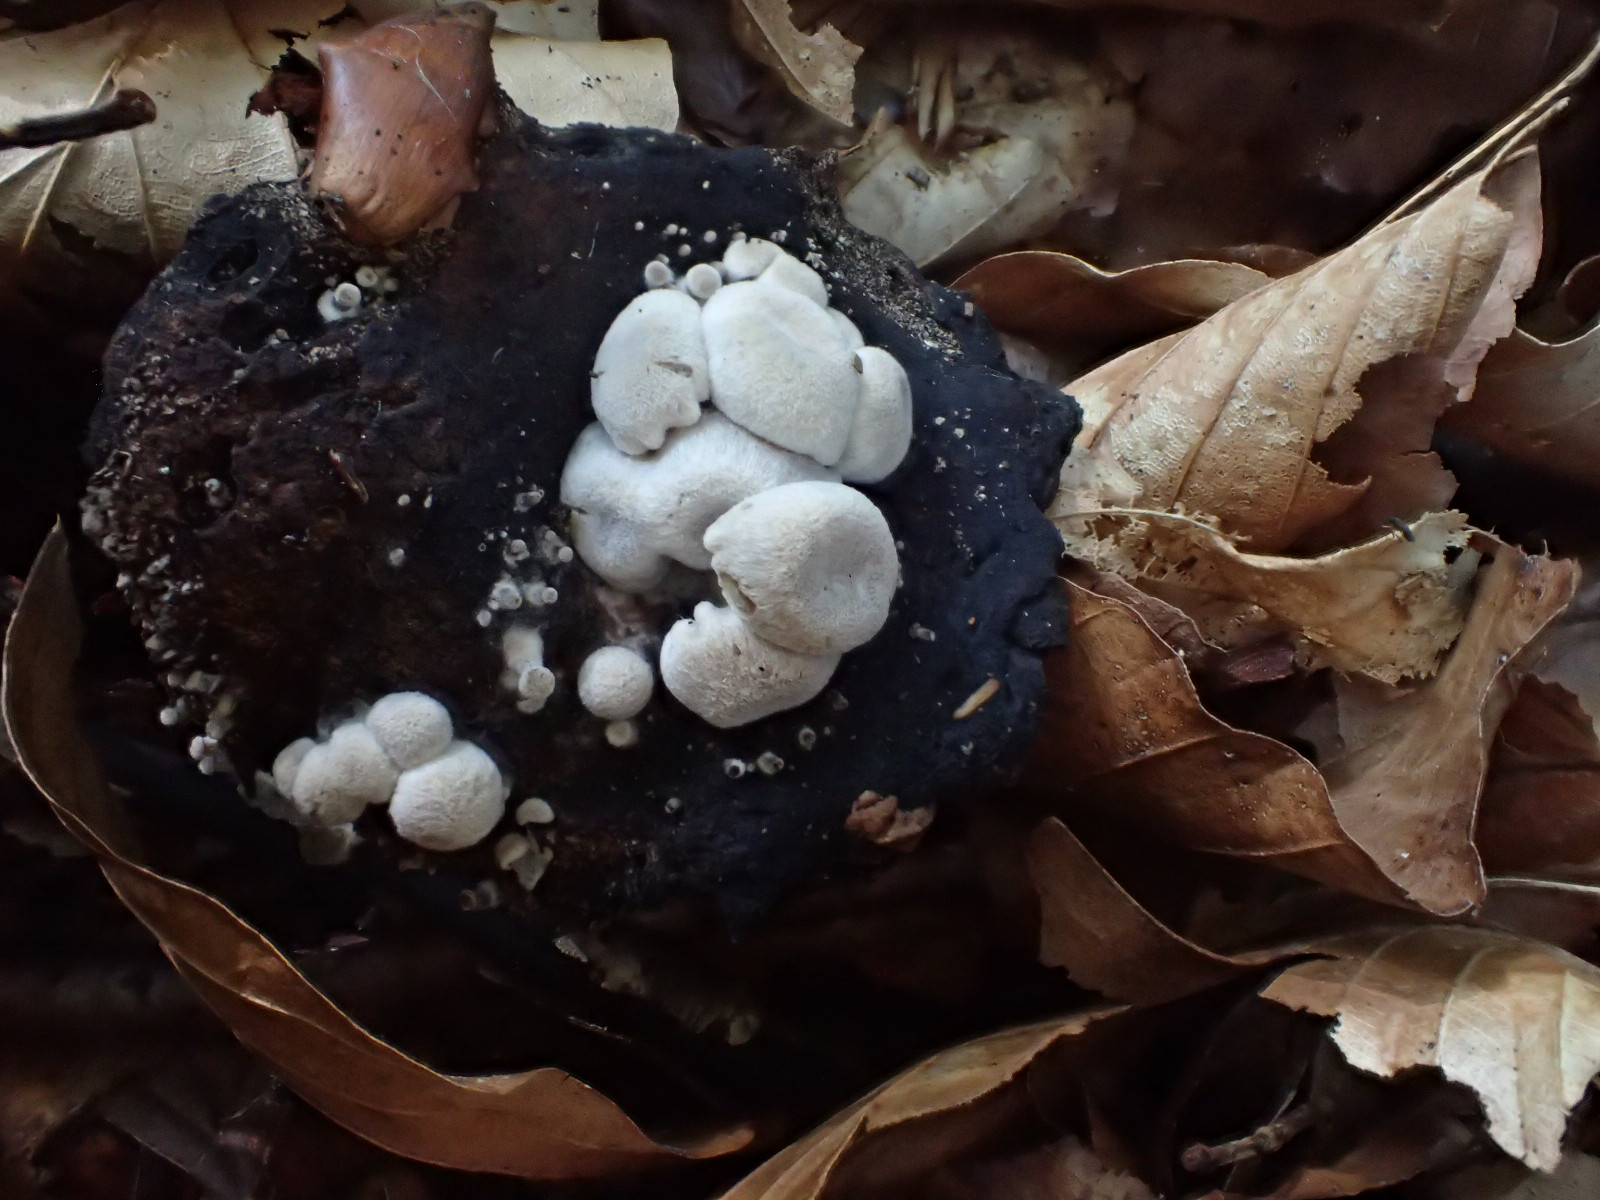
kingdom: Fungi
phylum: Basidiomycota
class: Agaricomycetes
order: Agaricales
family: Lyophyllaceae
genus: Asterophora
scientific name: Asterophora parasitica
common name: grå snyltehat
